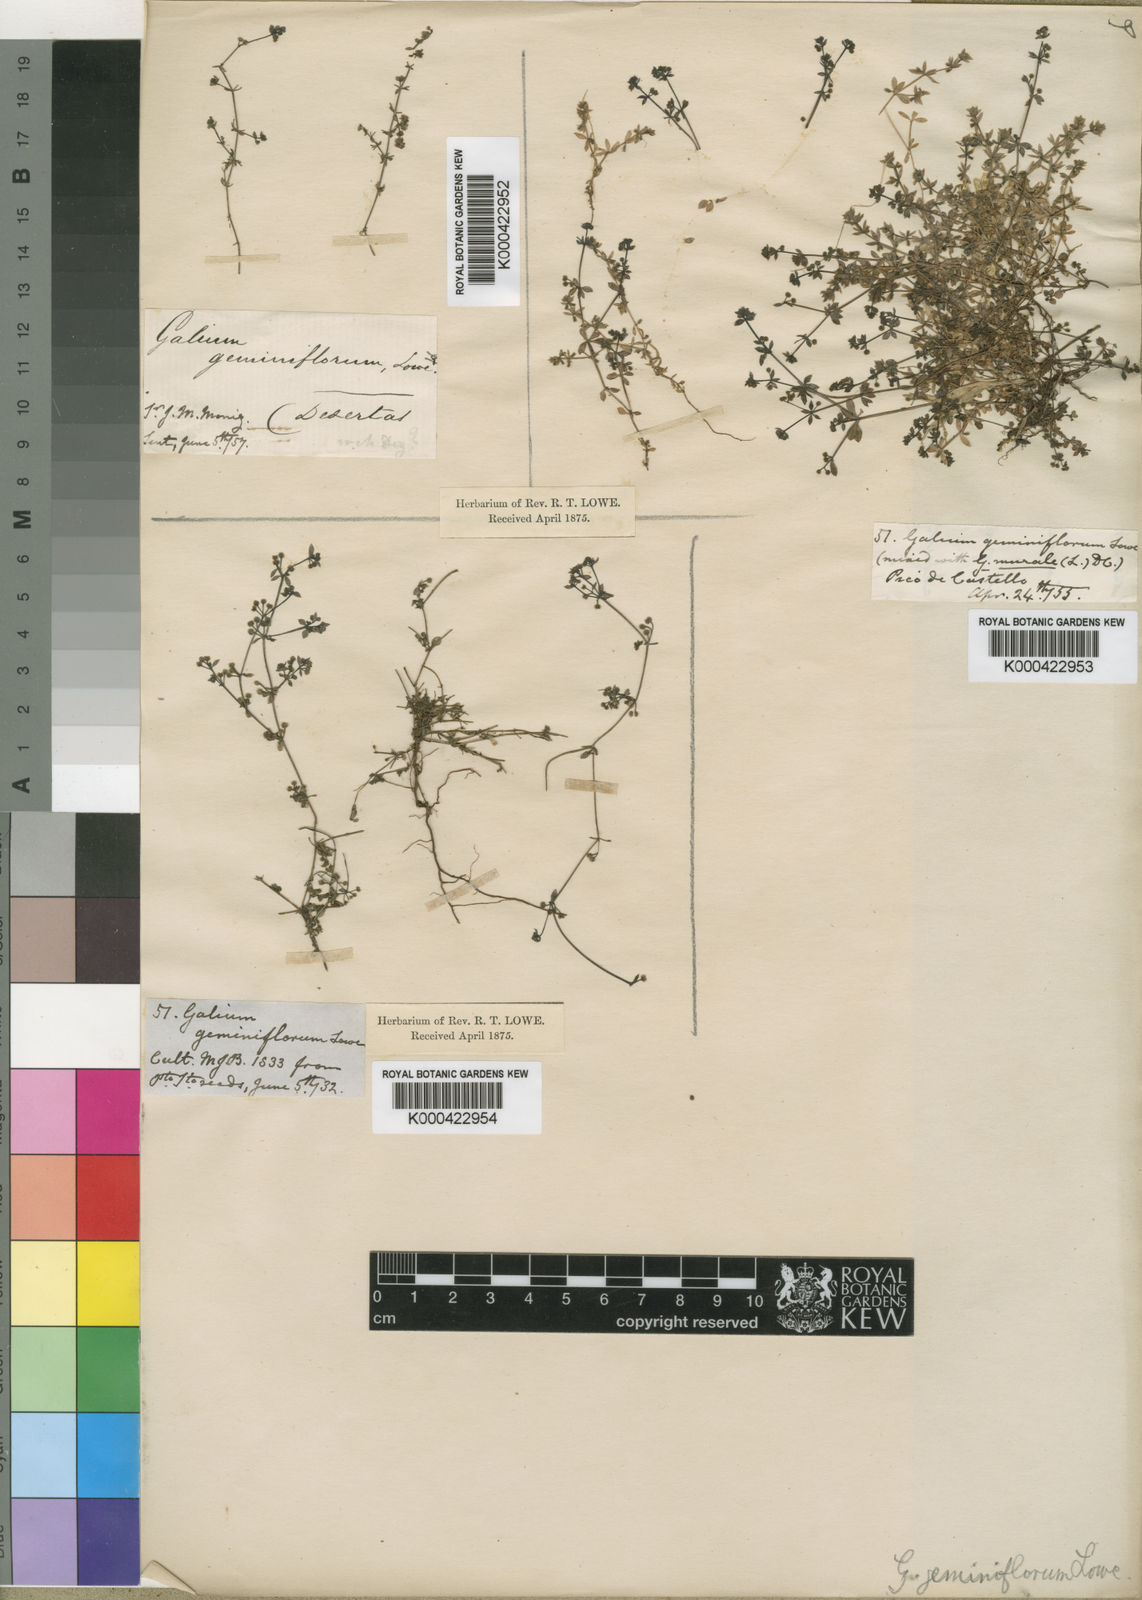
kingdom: Plantae
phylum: Tracheophyta
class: Magnoliopsida
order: Gentianales
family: Rubiaceae
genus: Galium
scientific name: Galium geminiflorum
